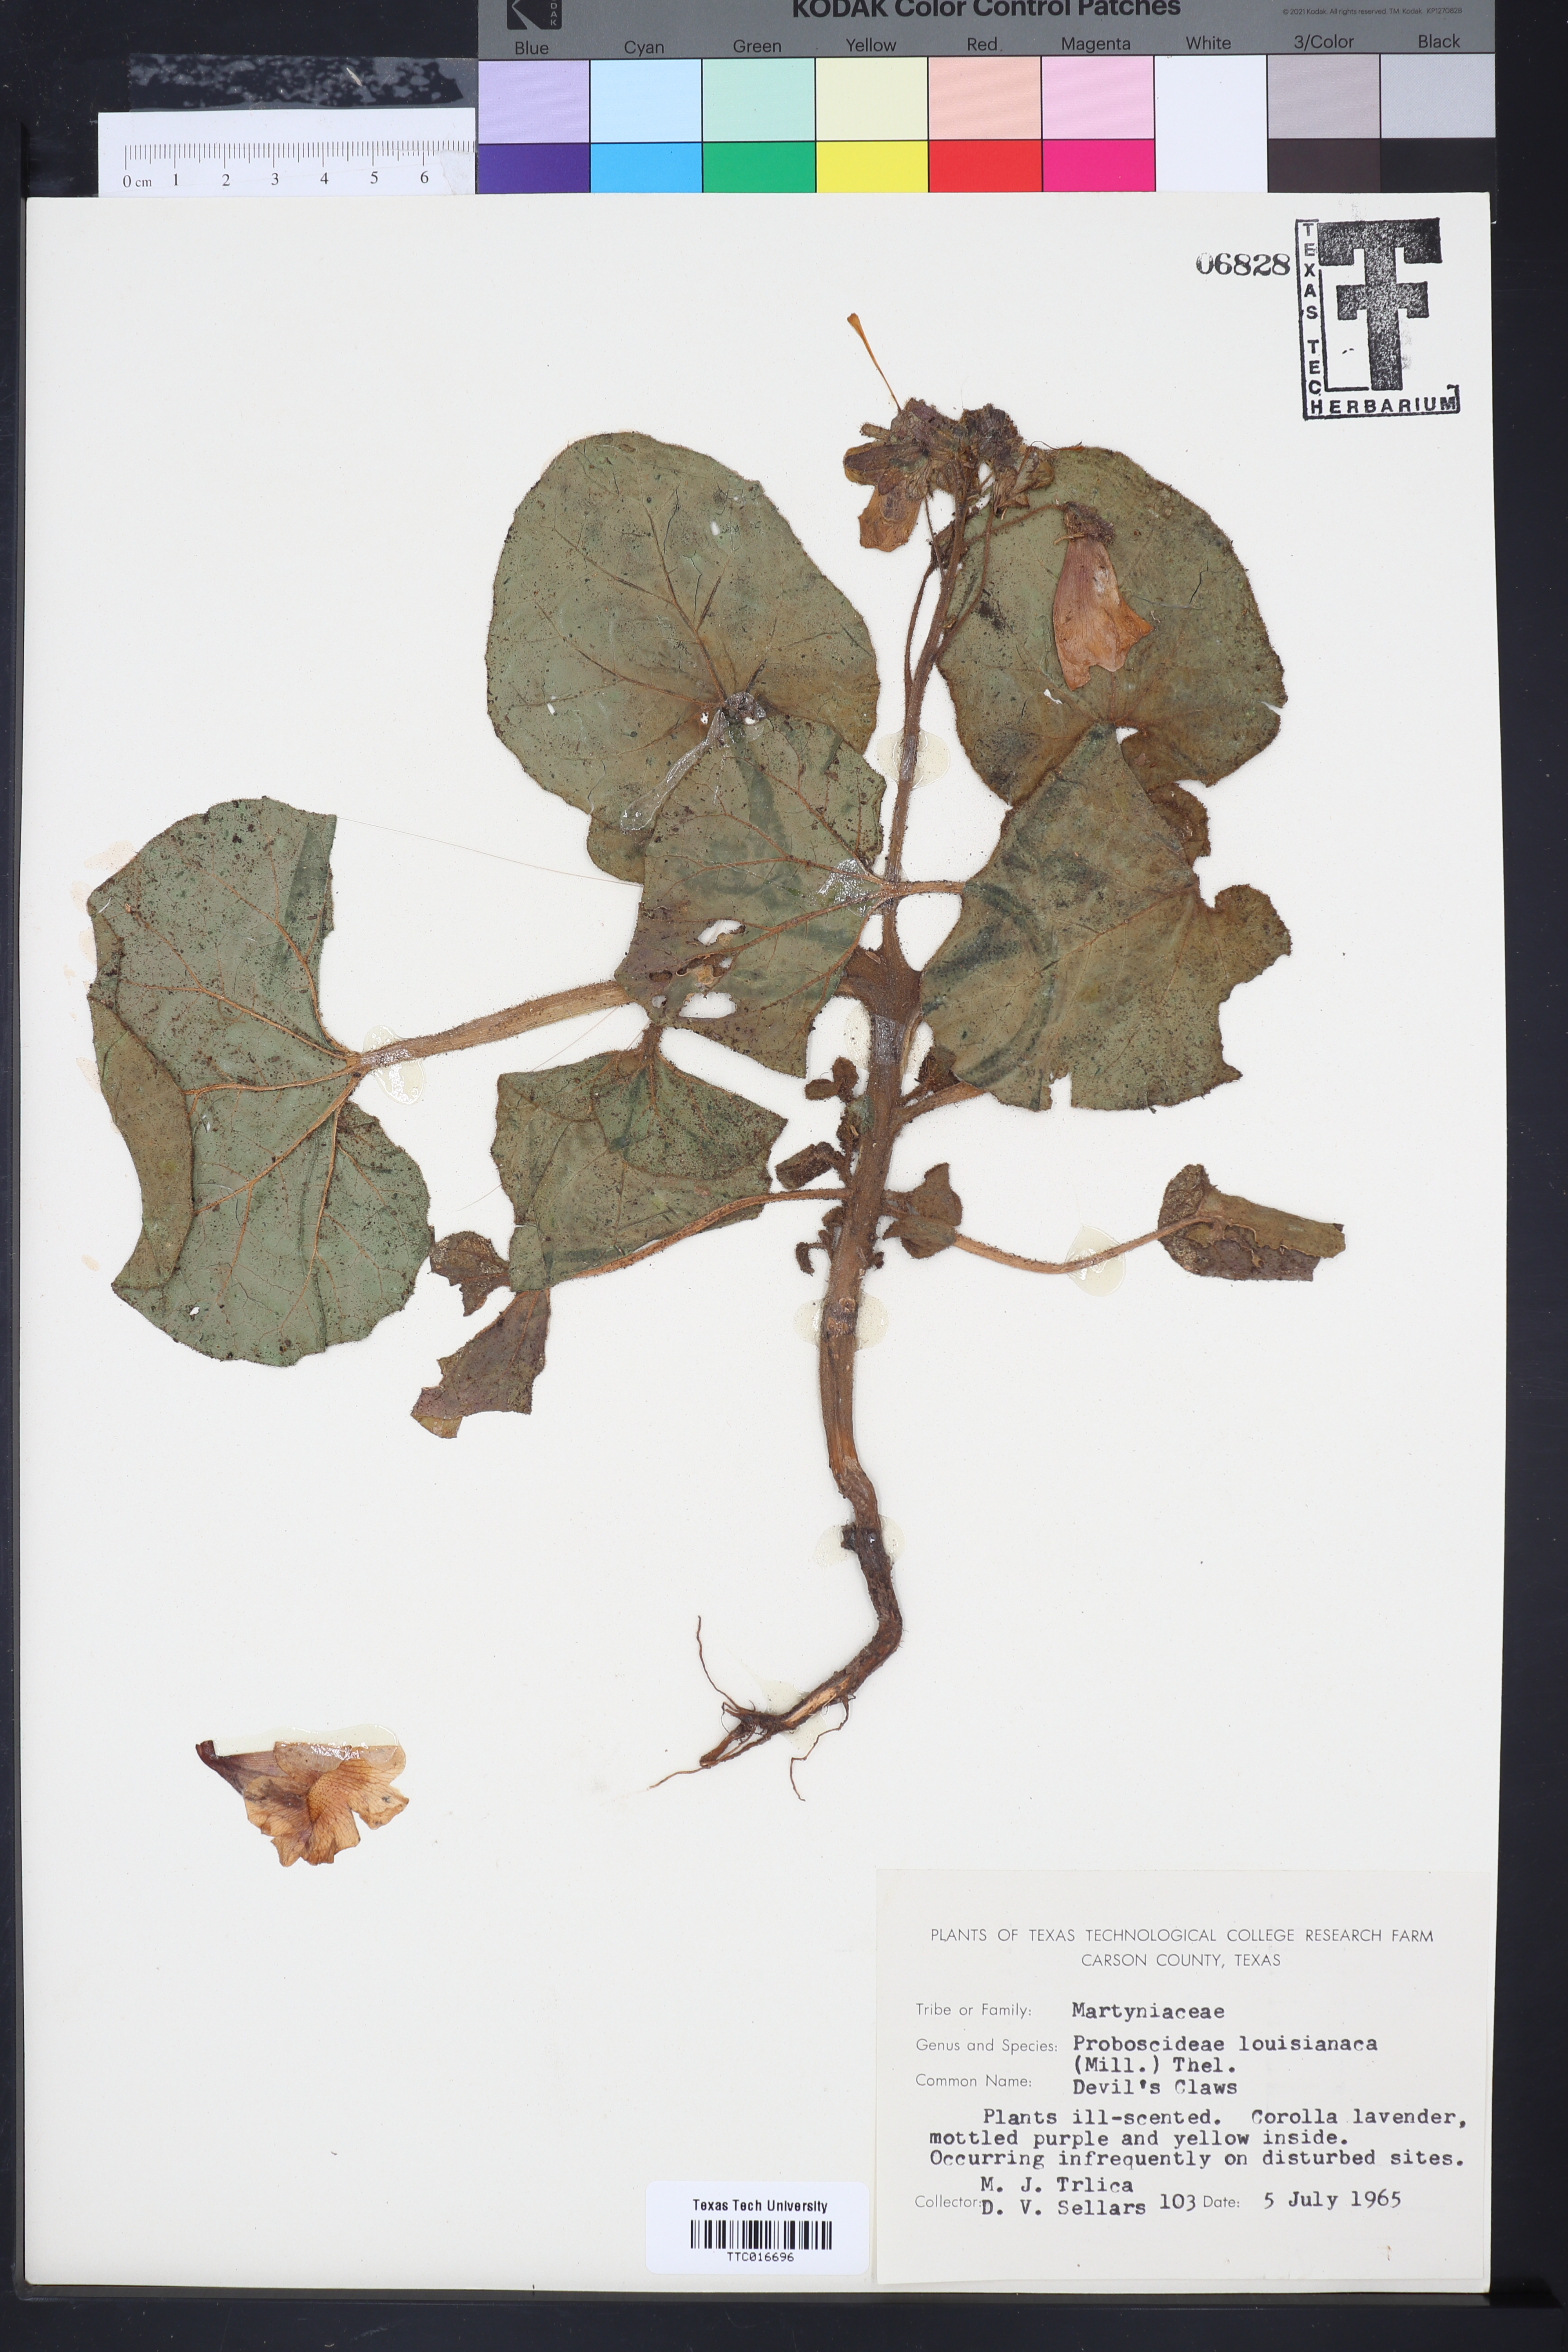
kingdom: Plantae
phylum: Tracheophyta
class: Magnoliopsida
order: Lamiales
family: Martyniaceae
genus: Proboscidea
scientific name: Proboscidea louisianica
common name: Elephant tusks
